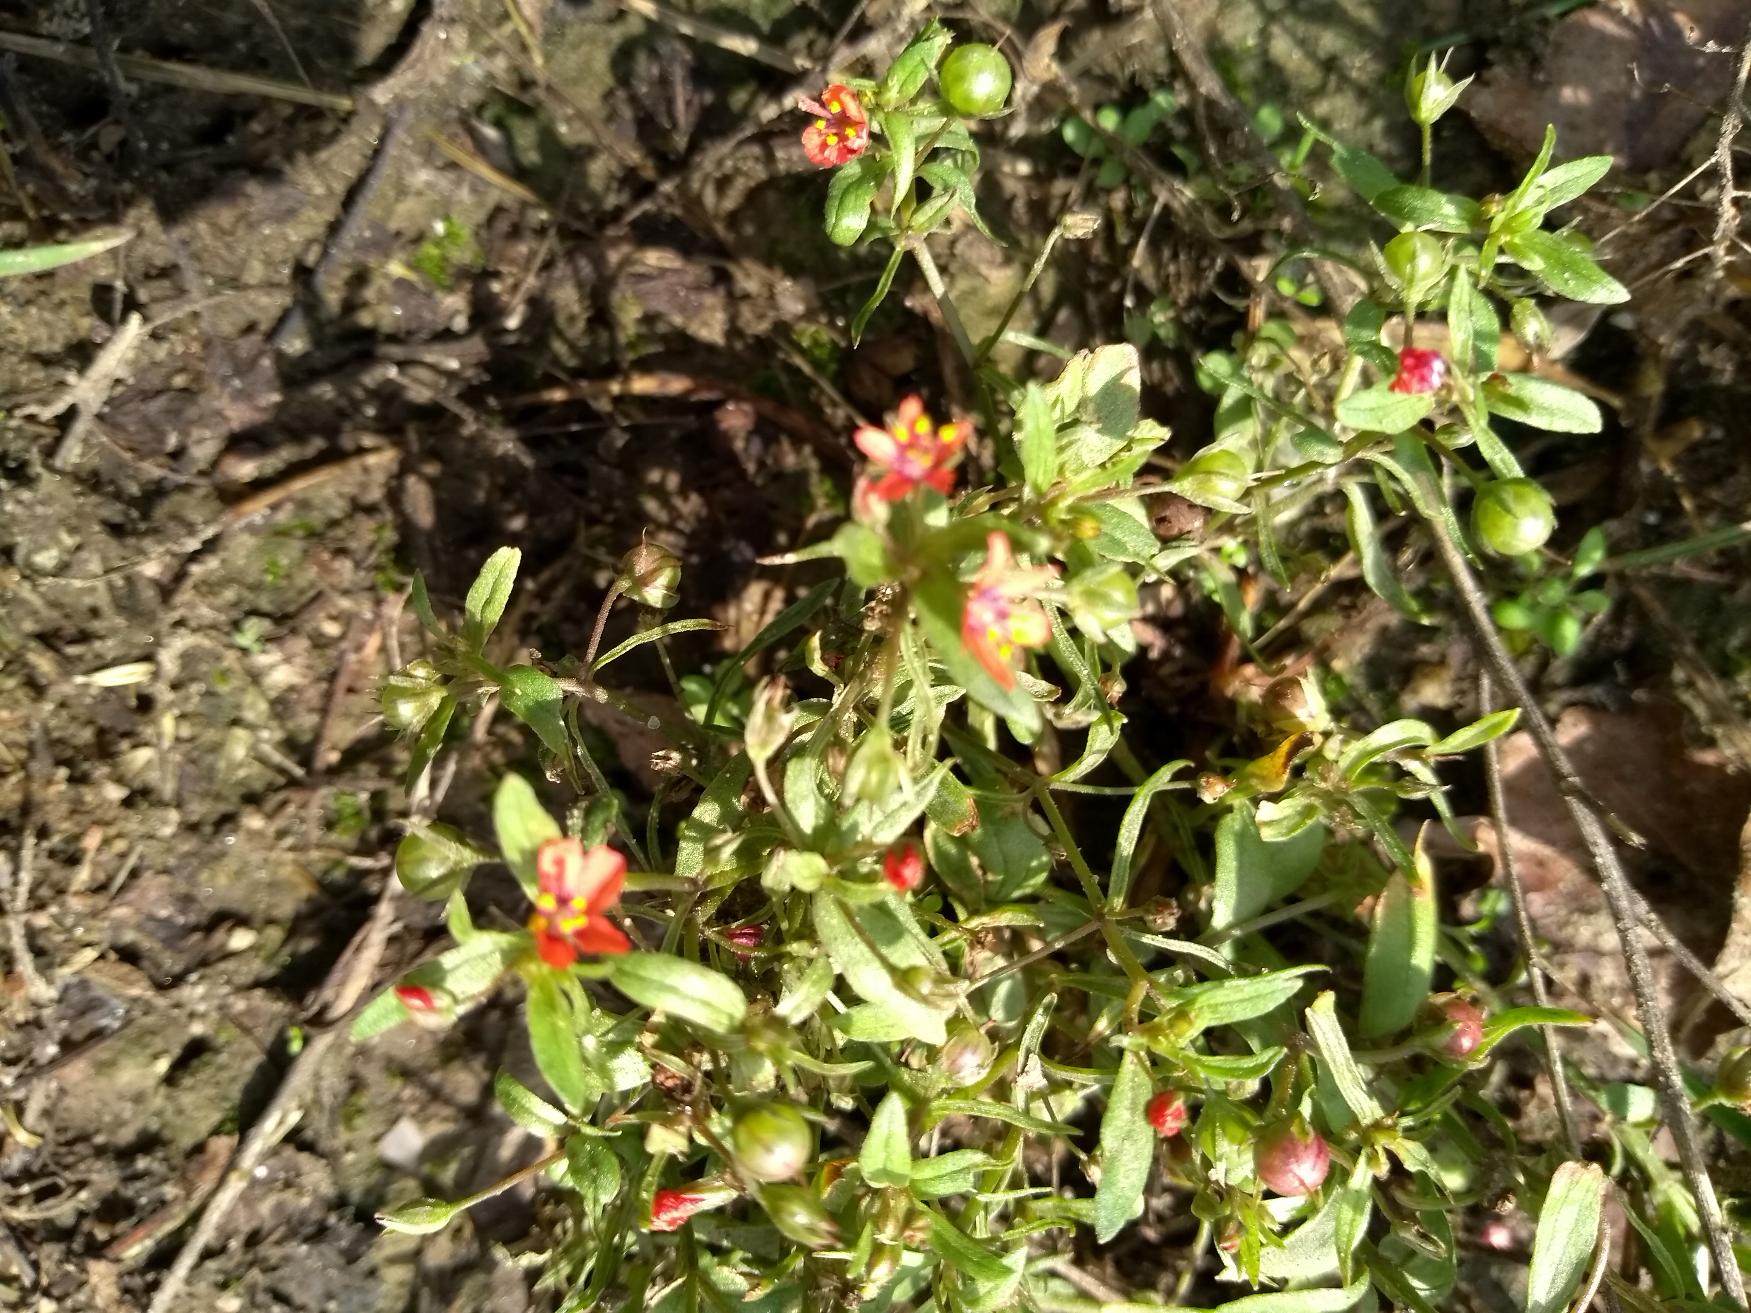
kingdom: Plantae
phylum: Tracheophyta
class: Magnoliopsida
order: Ericales
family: Primulaceae
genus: Lysimachia
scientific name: Lysimachia arvensis
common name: Rød arve
